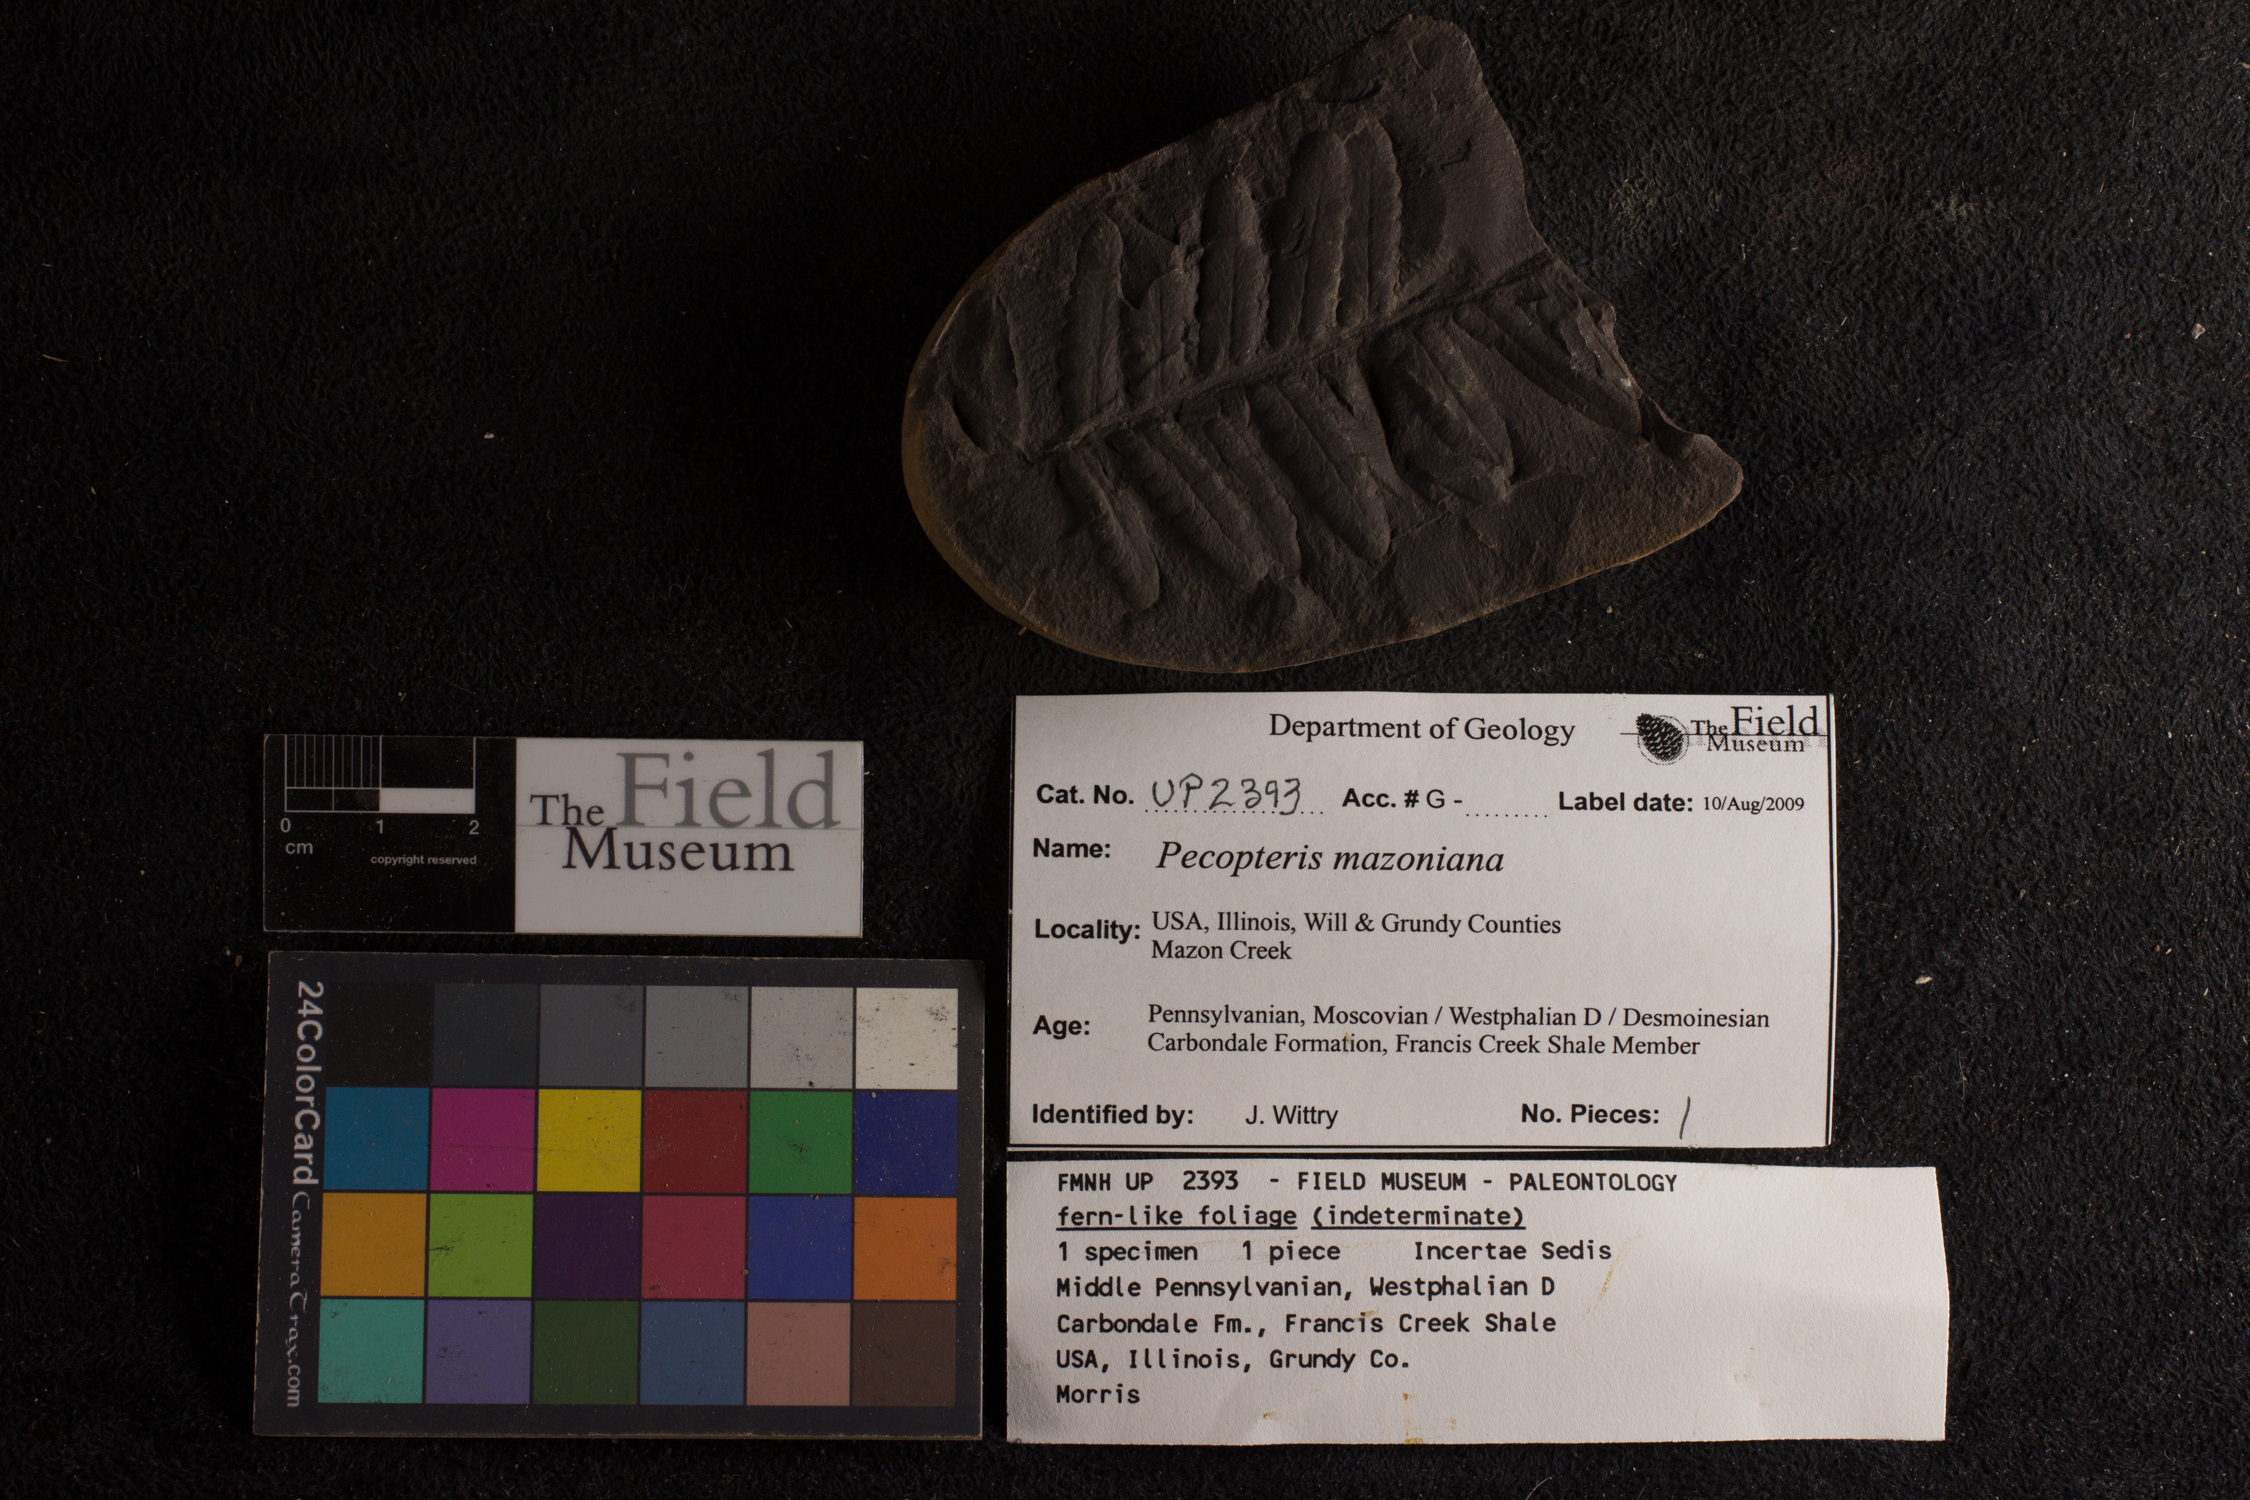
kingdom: Plantae
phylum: Tracheophyta
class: Polypodiopsida
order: Marattiales
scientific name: Marattiales
